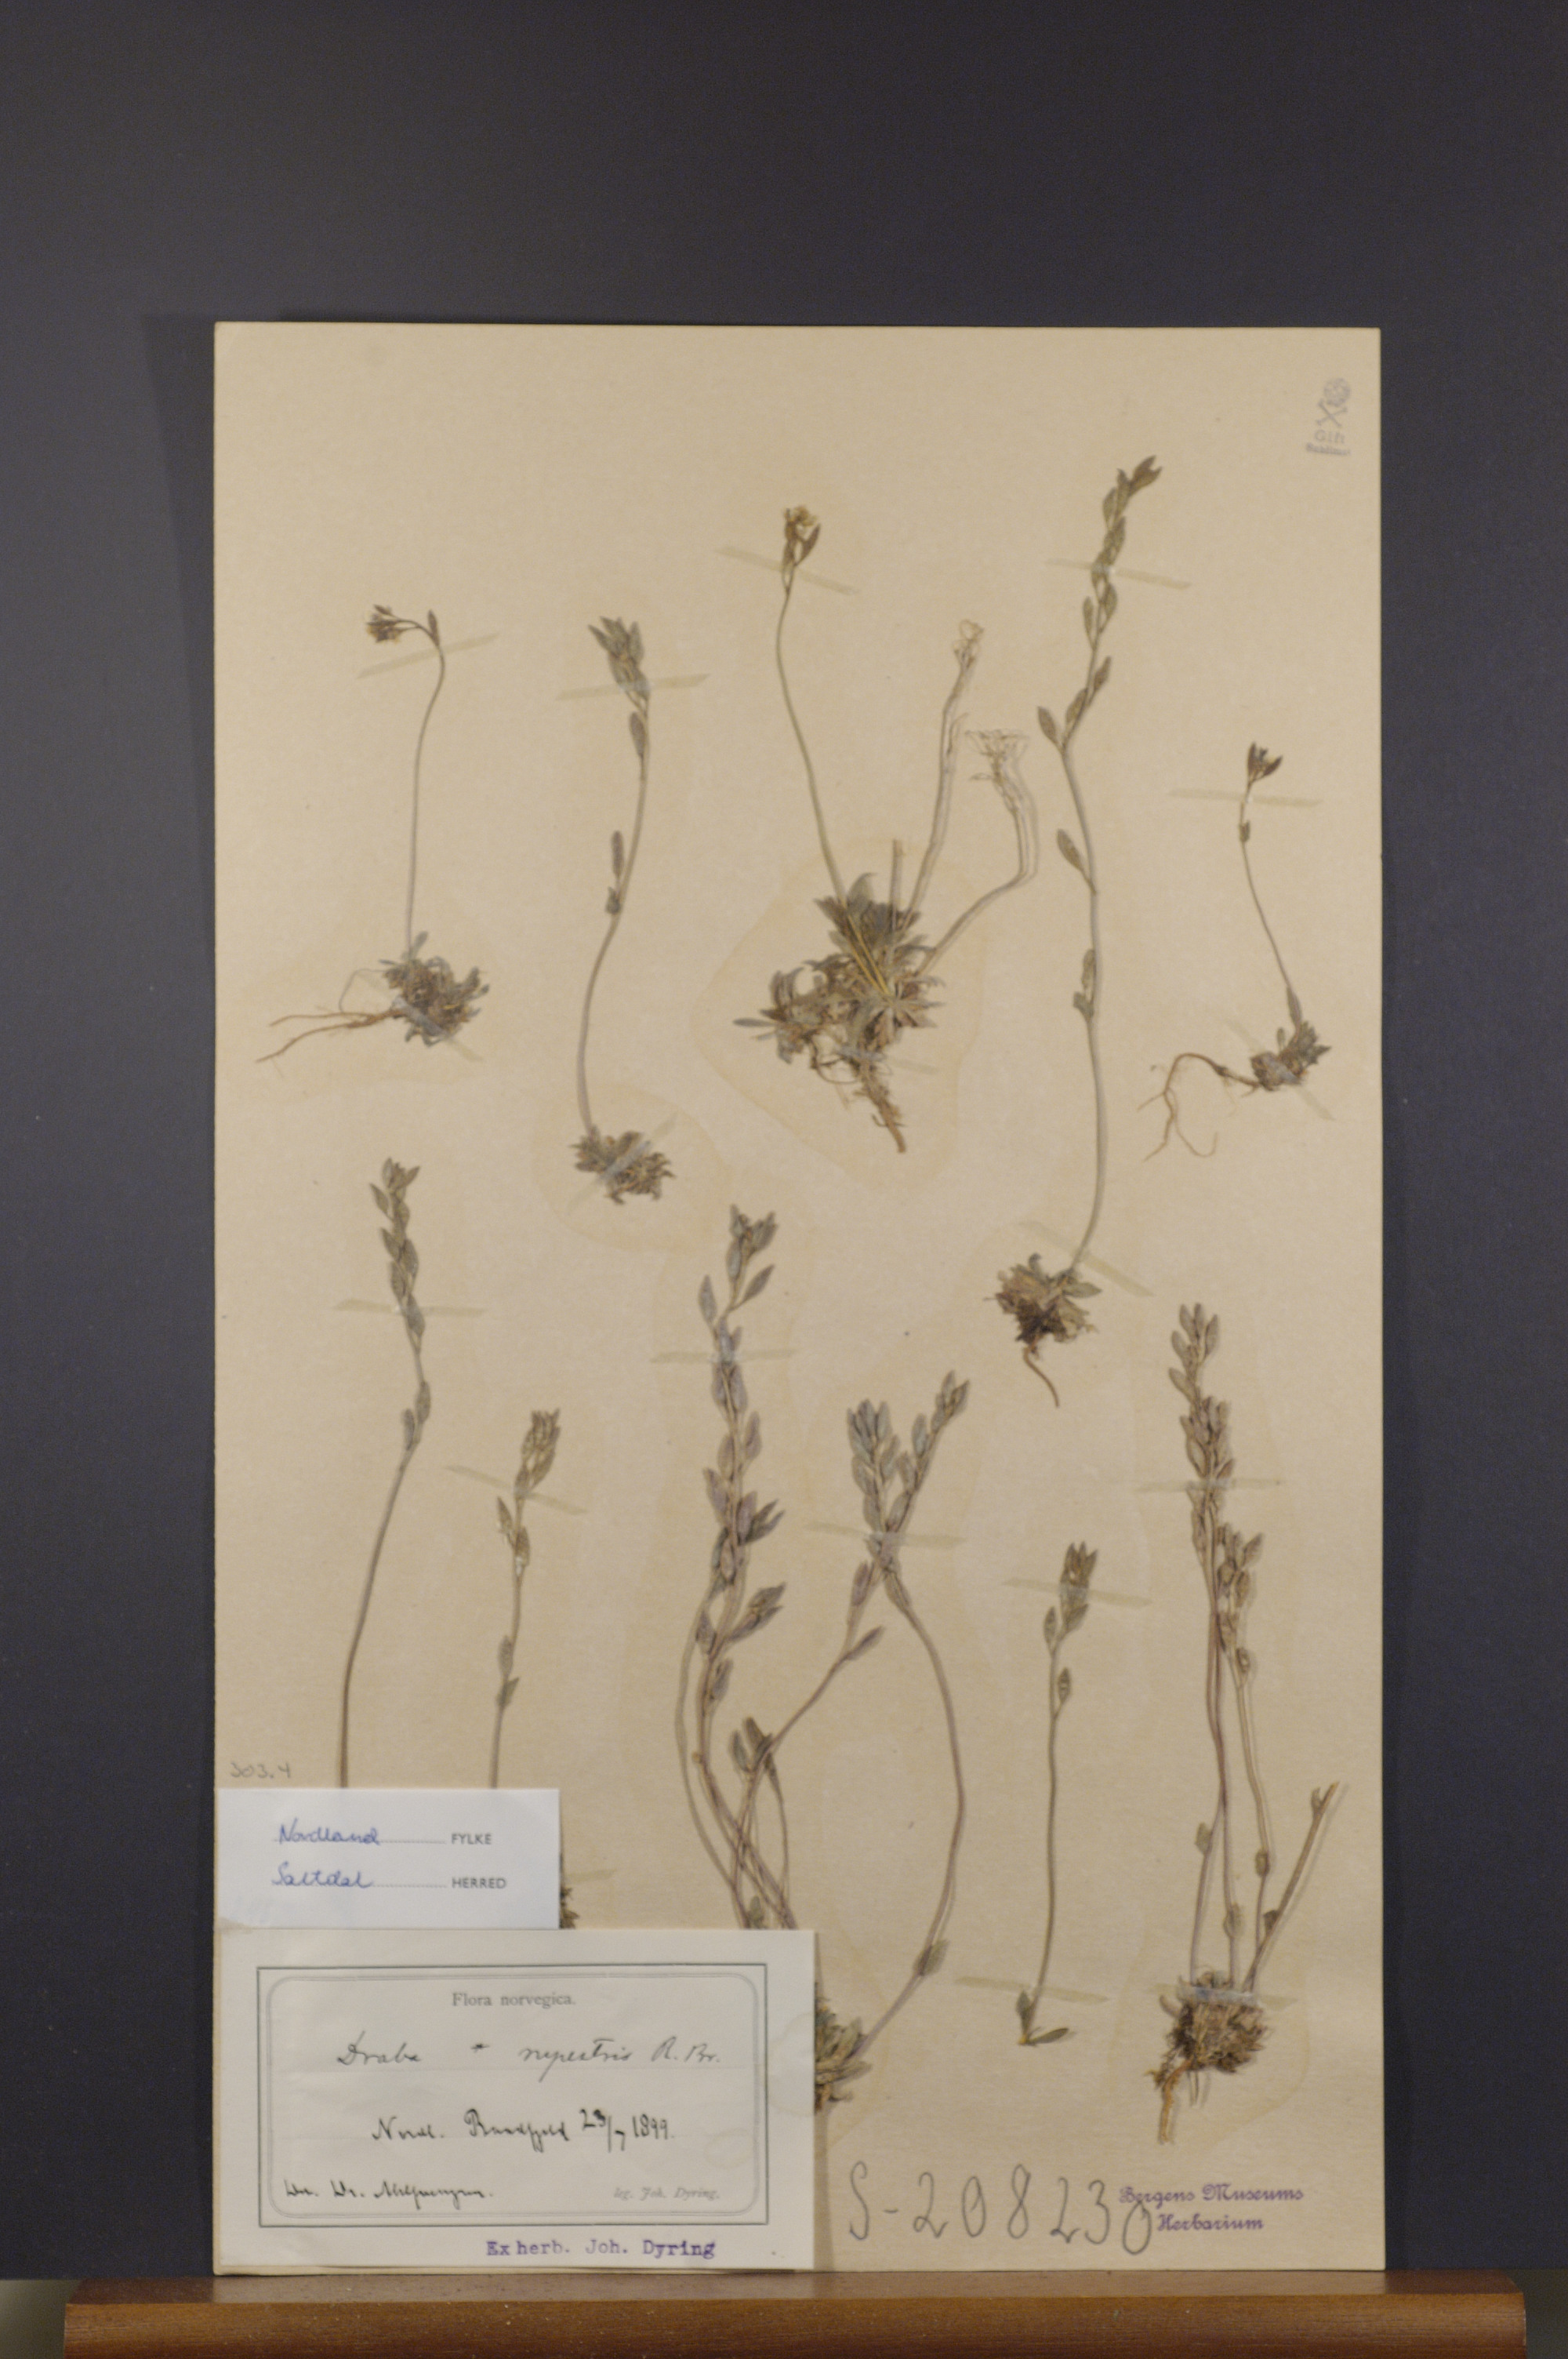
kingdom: Plantae
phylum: Tracheophyta
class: Magnoliopsida
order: Brassicales
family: Brassicaceae
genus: Draba
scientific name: Draba norvegica
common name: Rock whitlowgrass
